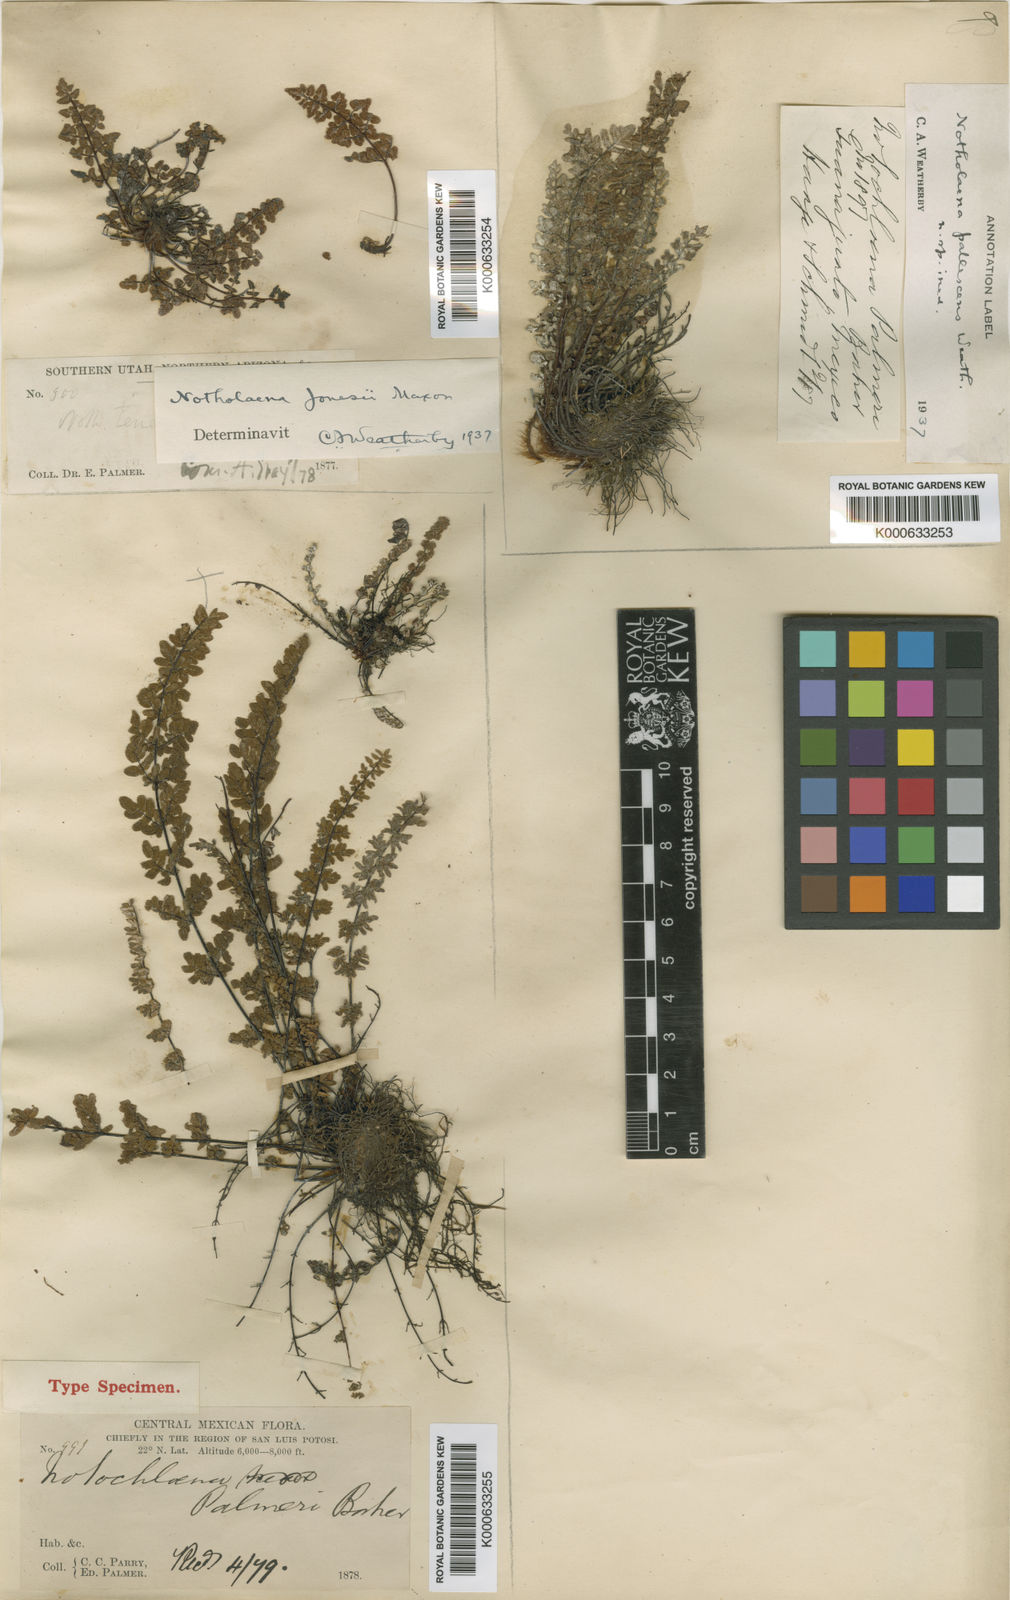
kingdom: Plantae
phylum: Tracheophyta
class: Polypodiopsida
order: Polypodiales
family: Pteridaceae
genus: Notholaena
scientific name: Notholaena jaliscana
